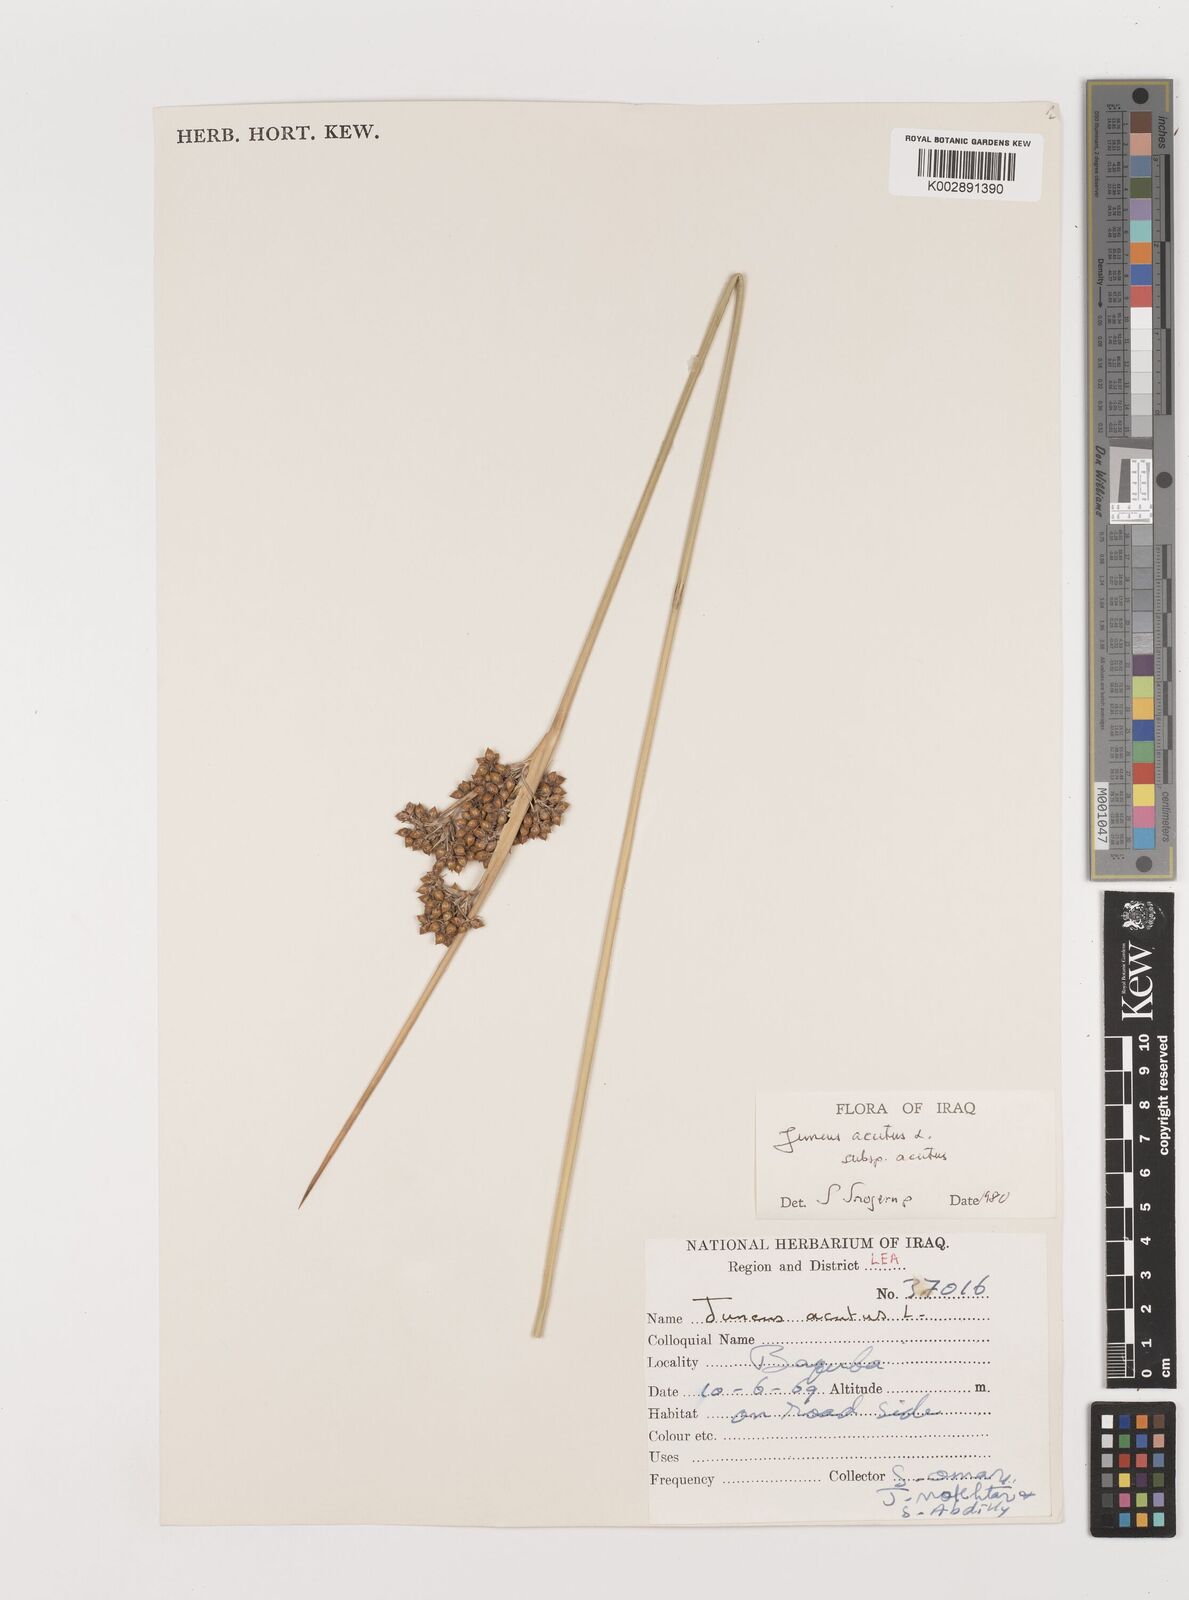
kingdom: Plantae
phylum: Tracheophyta
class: Liliopsida
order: Poales
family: Juncaceae
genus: Juncus
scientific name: Juncus acutus
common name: Sharp rush
